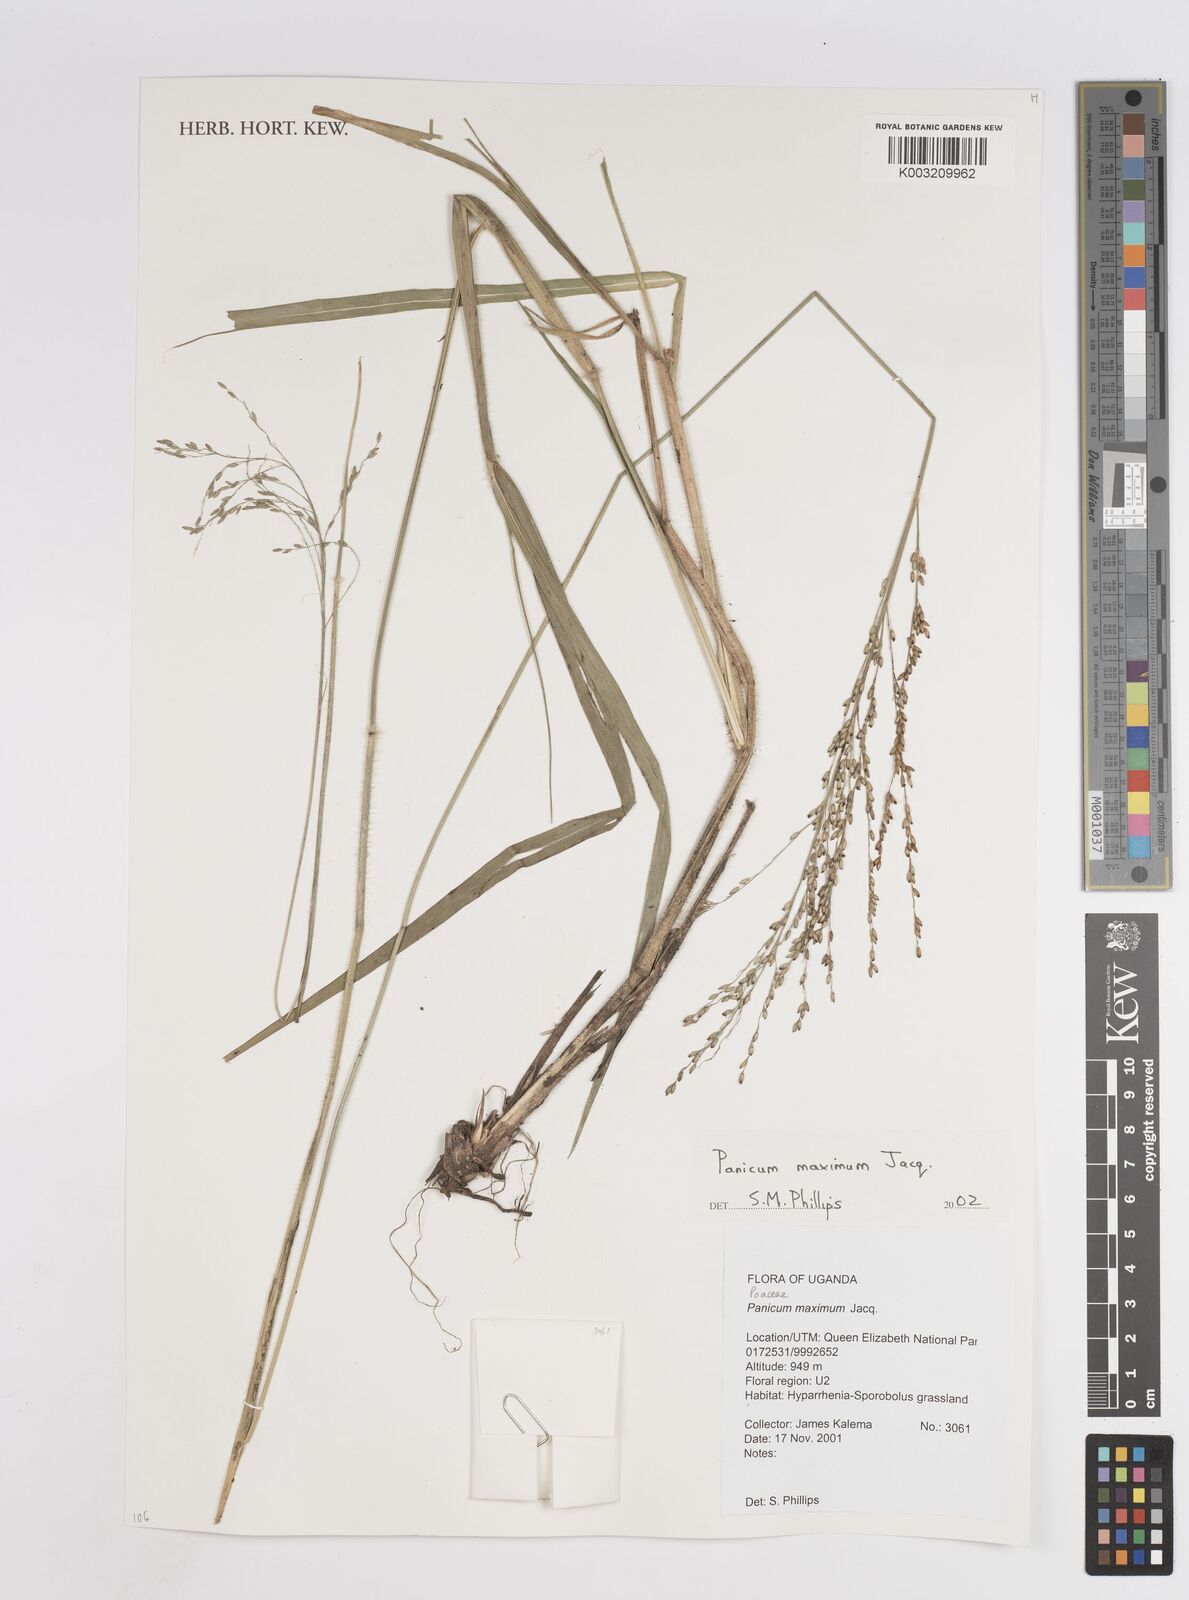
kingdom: Plantae
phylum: Tracheophyta
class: Liliopsida
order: Poales
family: Poaceae
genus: Megathyrsus
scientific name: Megathyrsus maximus
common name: Guineagrass
